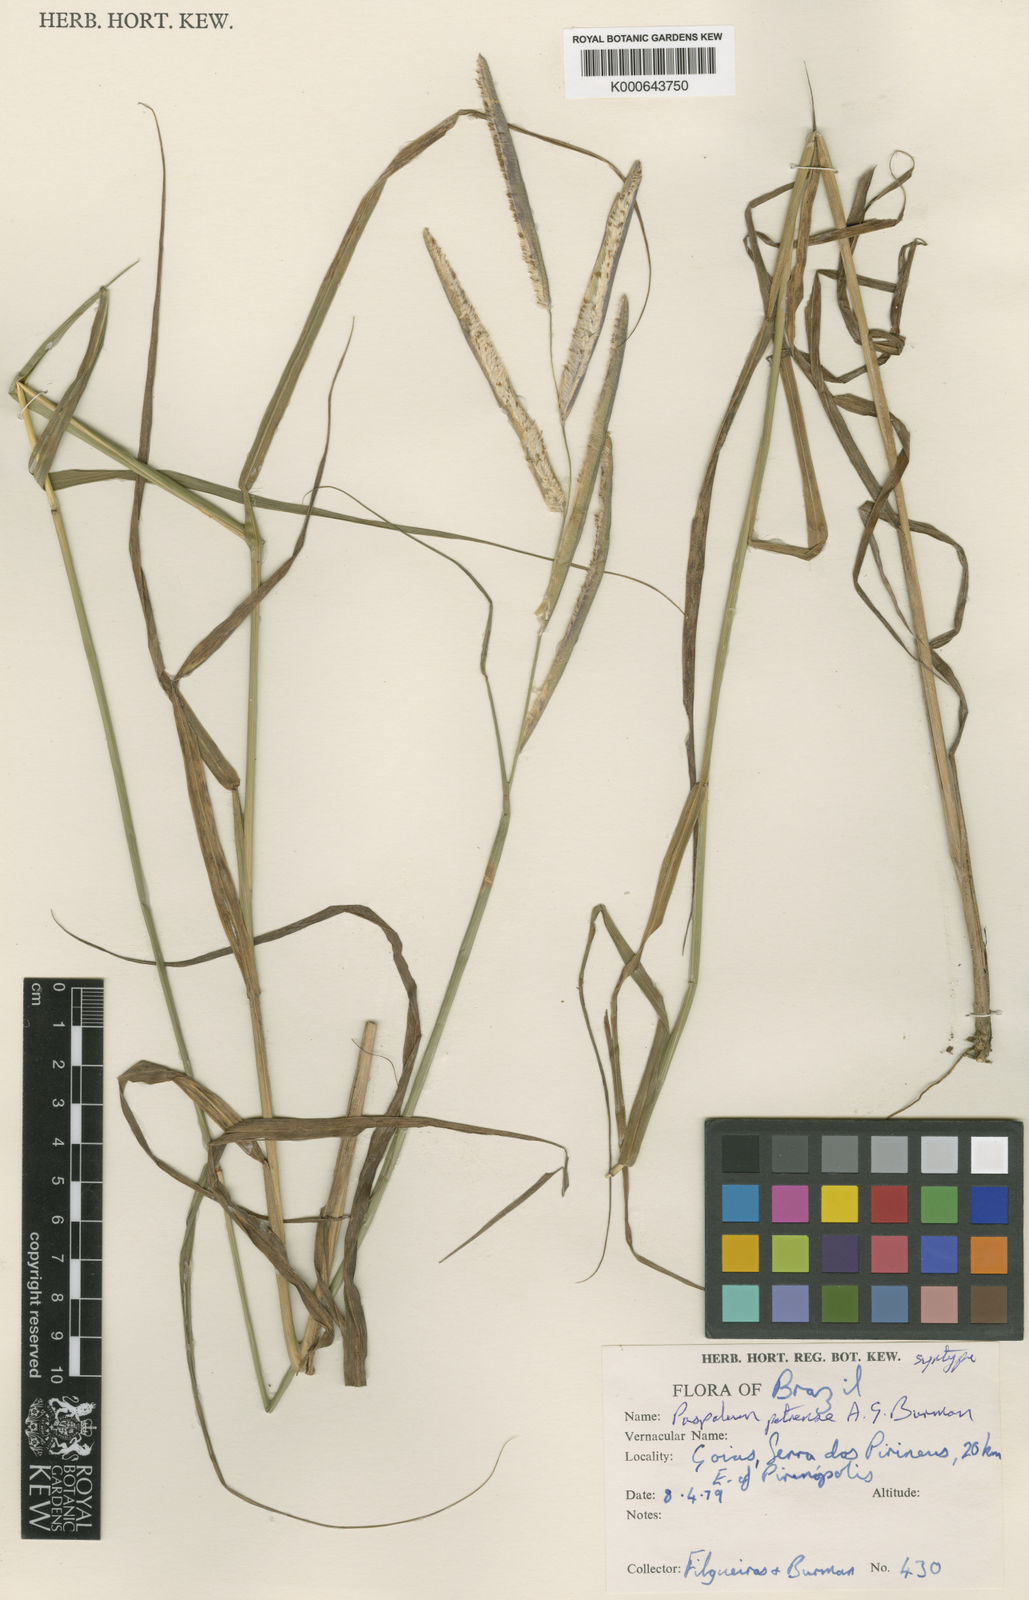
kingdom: Plantae
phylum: Tracheophyta
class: Liliopsida
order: Poales
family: Poaceae
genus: Paspalum
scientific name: Paspalum petrense
